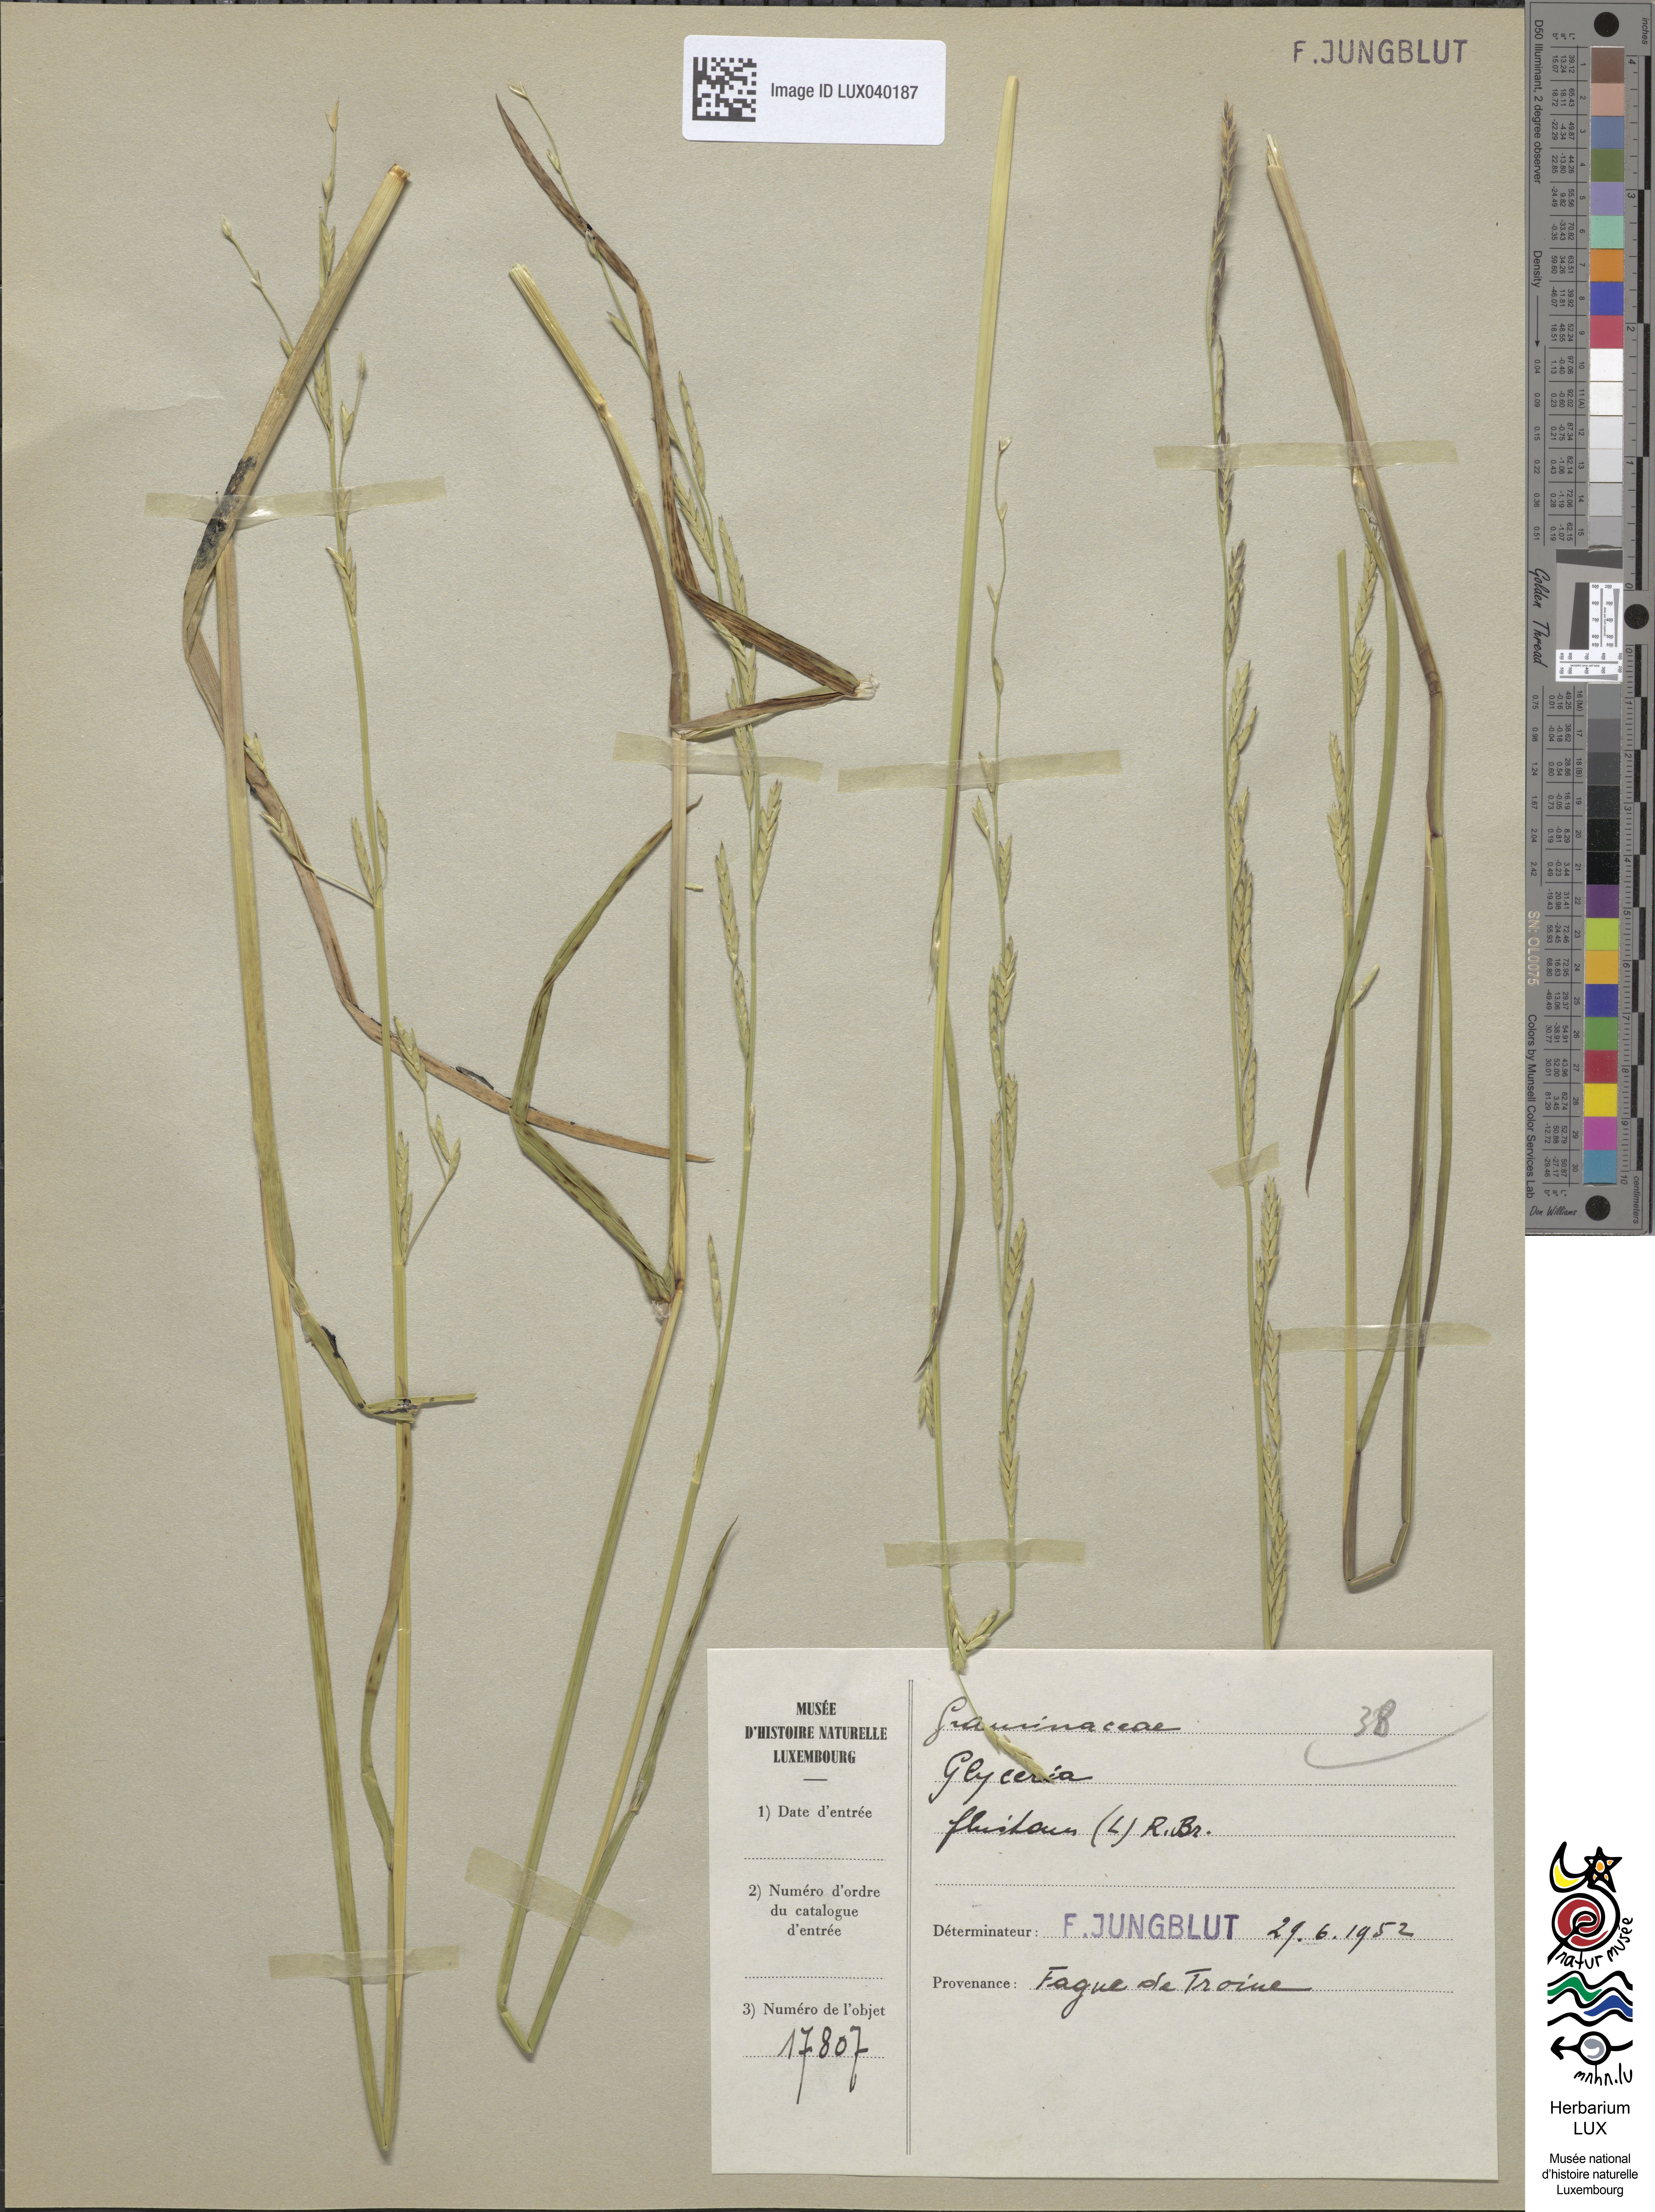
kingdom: Plantae
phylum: Tracheophyta
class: Liliopsida
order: Poales
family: Poaceae
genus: Glyceria
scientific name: Glyceria fluitans
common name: Floating sweet-grass
